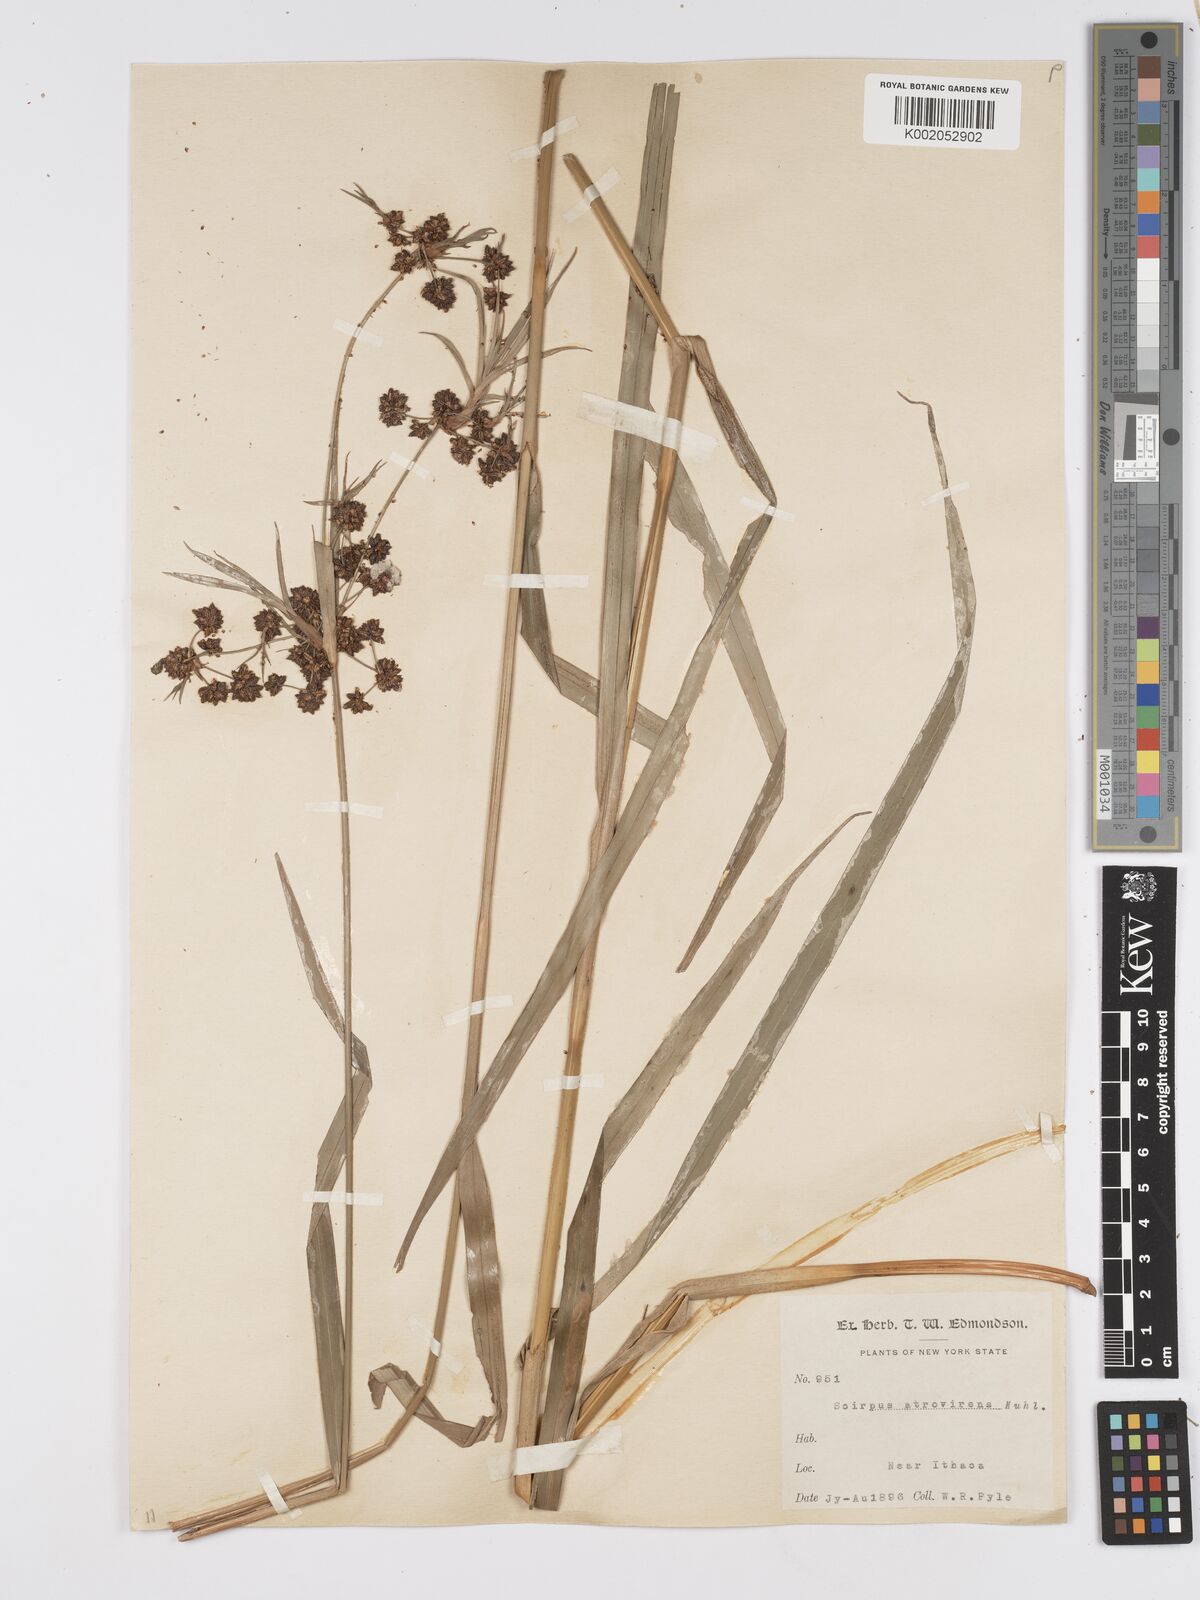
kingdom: Plantae
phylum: Tracheophyta
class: Liliopsida
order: Poales
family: Cyperaceae
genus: Scirpus
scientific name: Scirpus sylvaticus
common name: Wood club-rush
